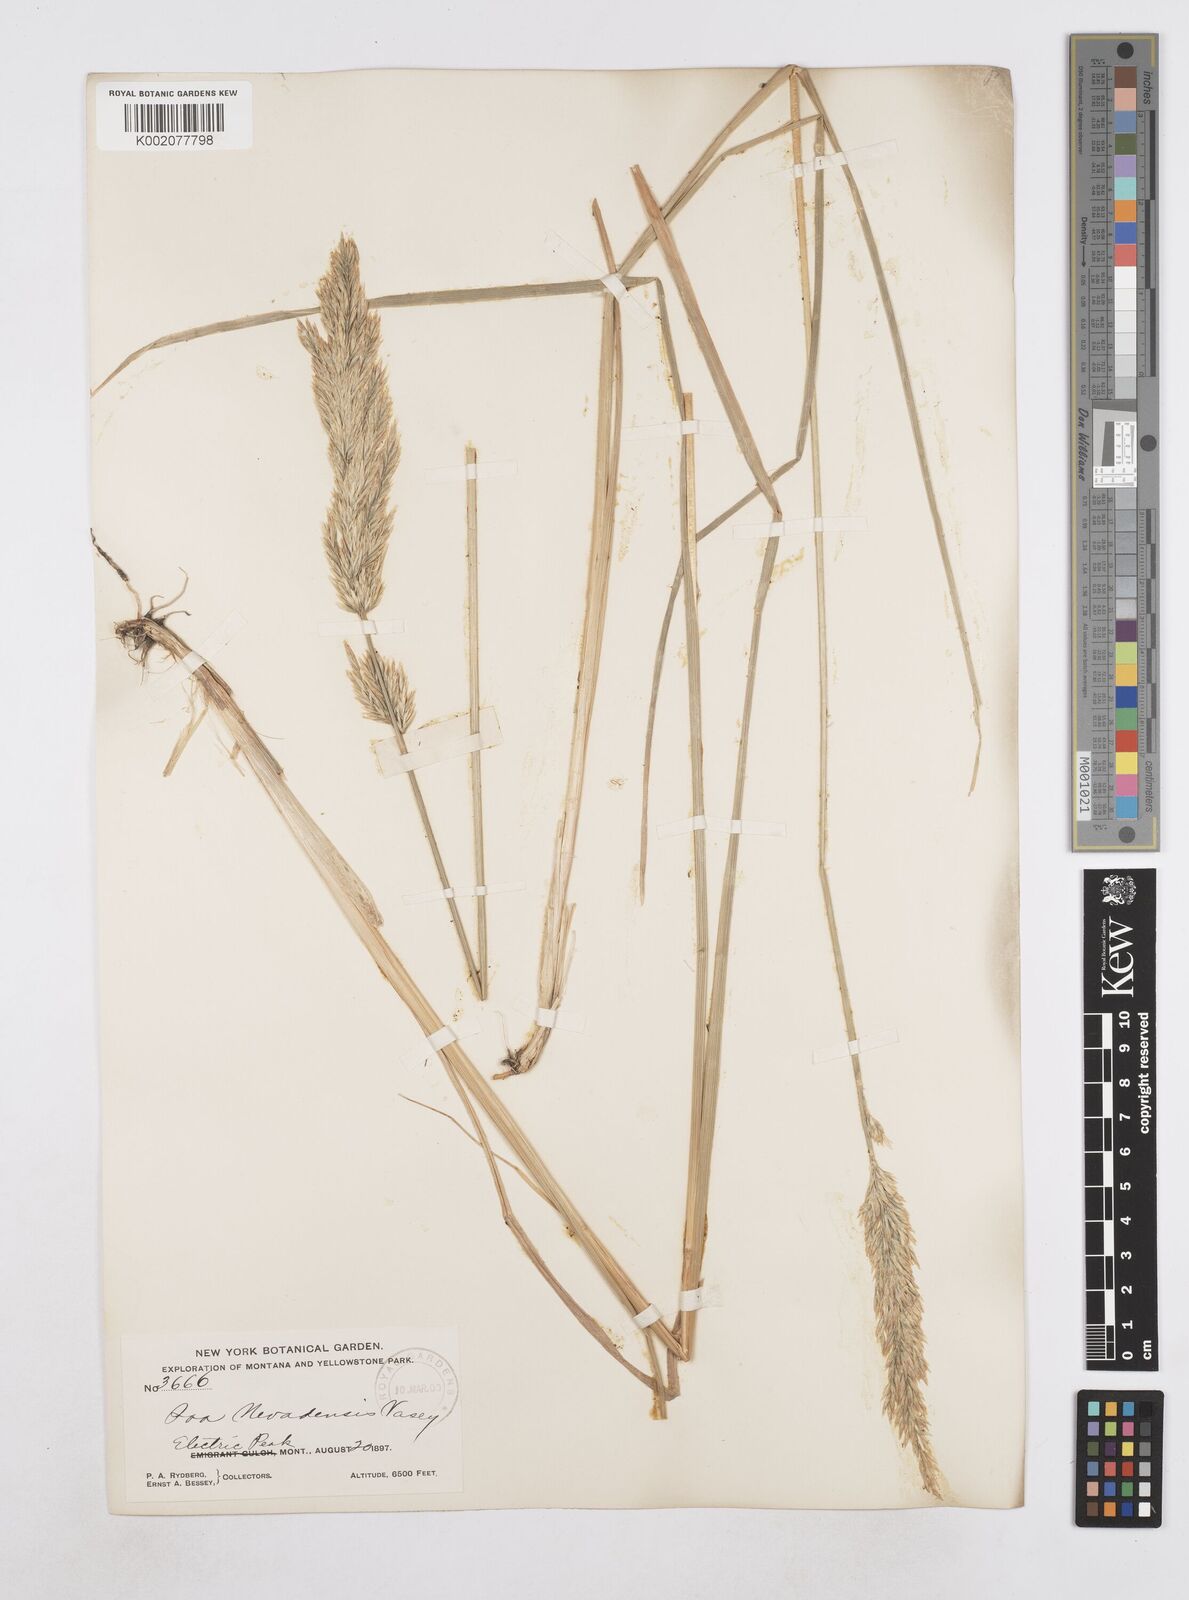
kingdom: Plantae
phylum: Tracheophyta
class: Liliopsida
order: Poales
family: Poaceae
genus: Poa
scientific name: Poa secunda
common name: Sandberg bluegrass
